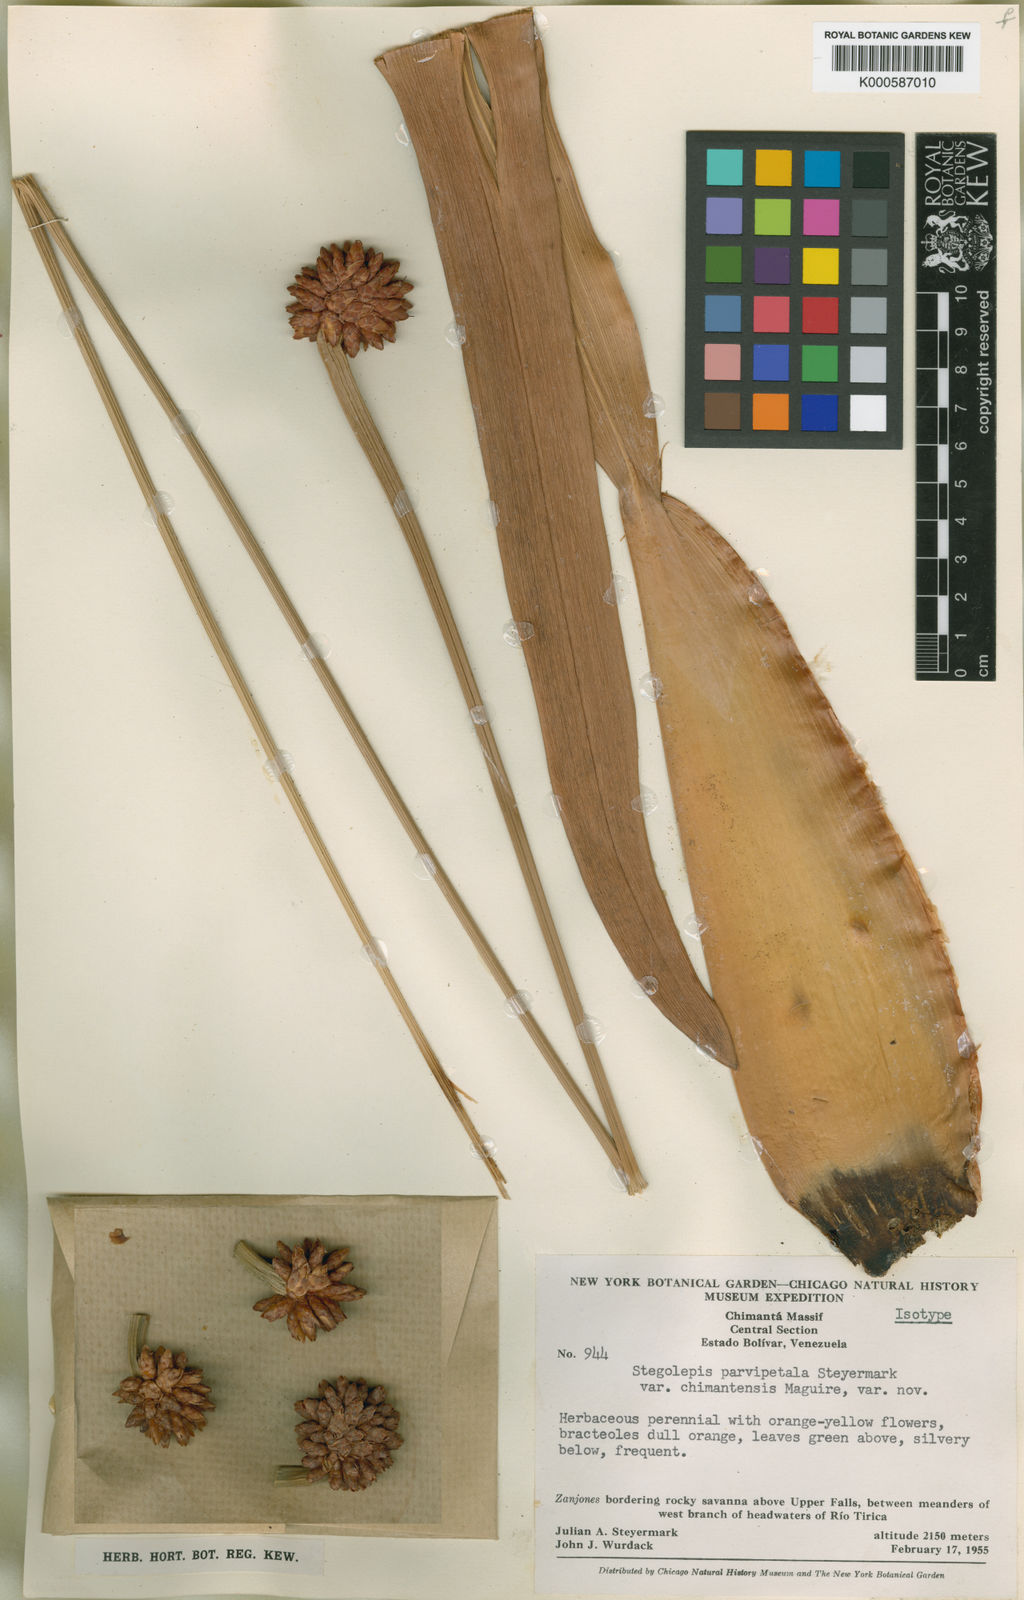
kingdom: Plantae
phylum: Tracheophyta
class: Liliopsida
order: Poales
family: Rapateaceae
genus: Stegolepis
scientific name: Stegolepis parvipetala
